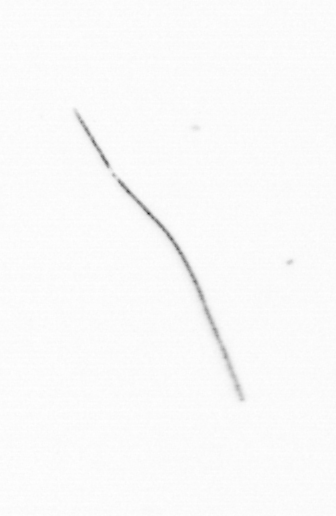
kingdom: Animalia
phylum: Chordata
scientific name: Chordata
